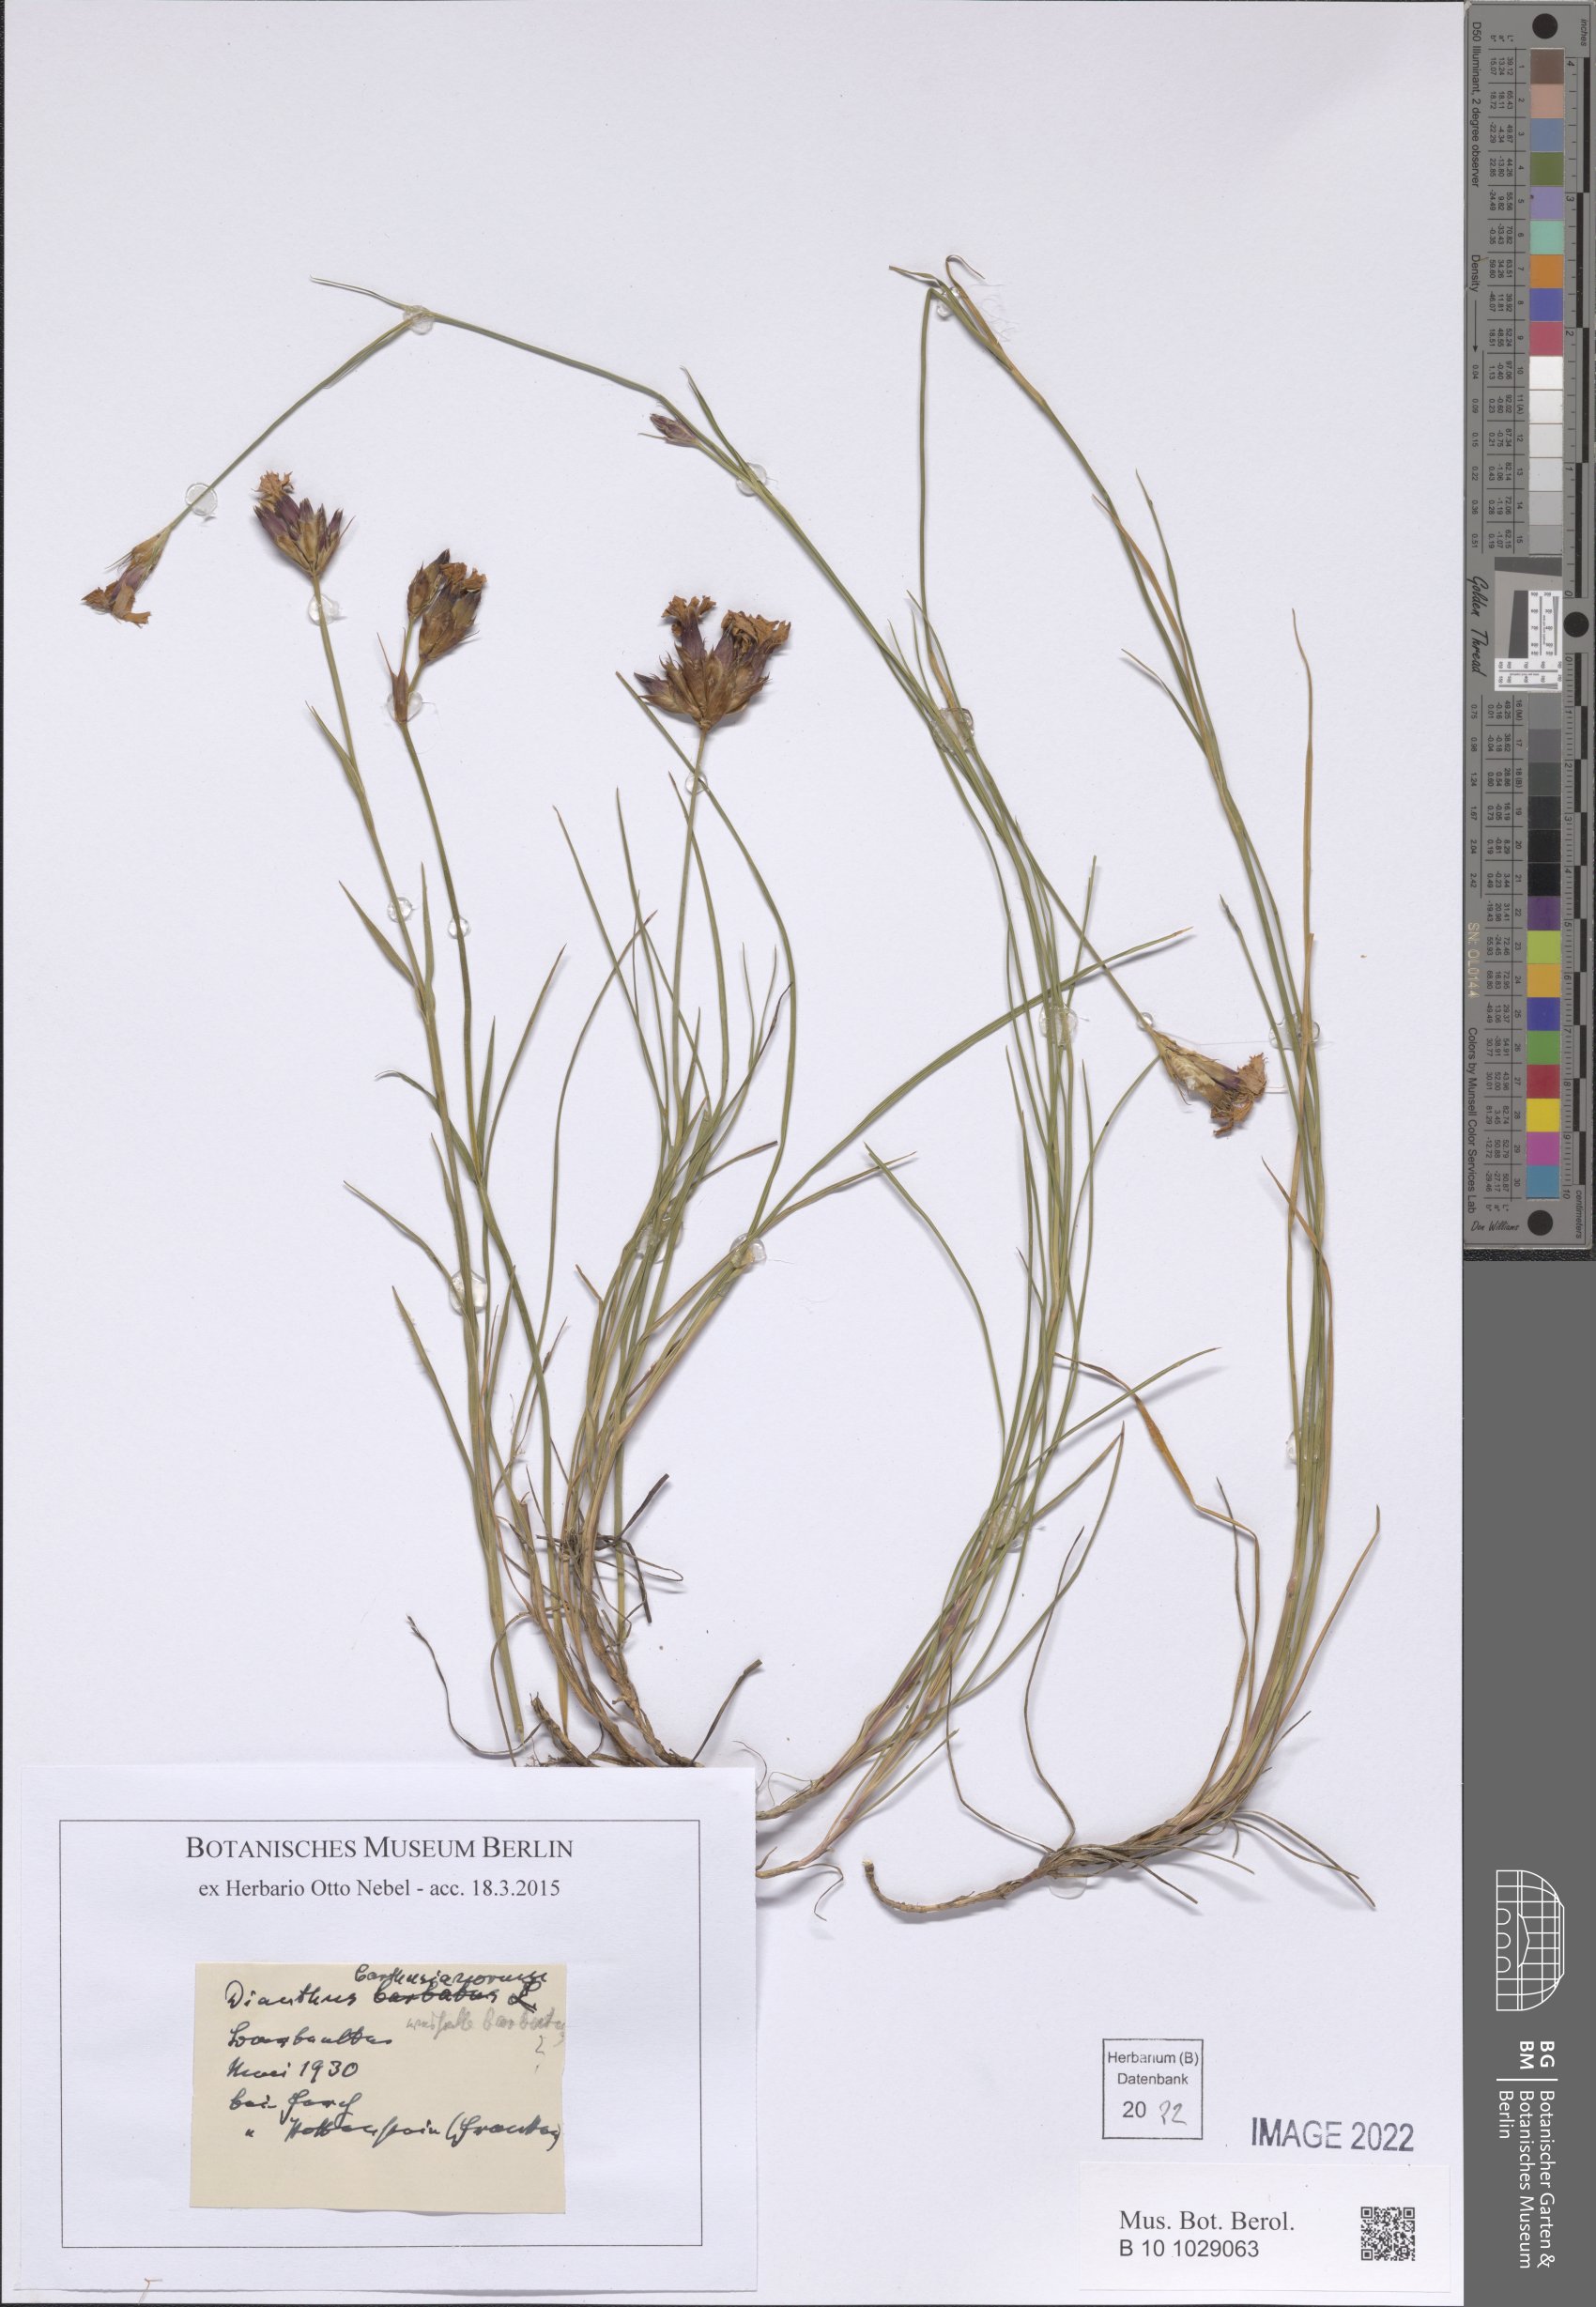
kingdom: Plantae
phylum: Tracheophyta
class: Magnoliopsida
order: Caryophyllales
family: Caryophyllaceae
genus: Dianthus
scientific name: Dianthus carthusianorum
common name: Carthusian pink
